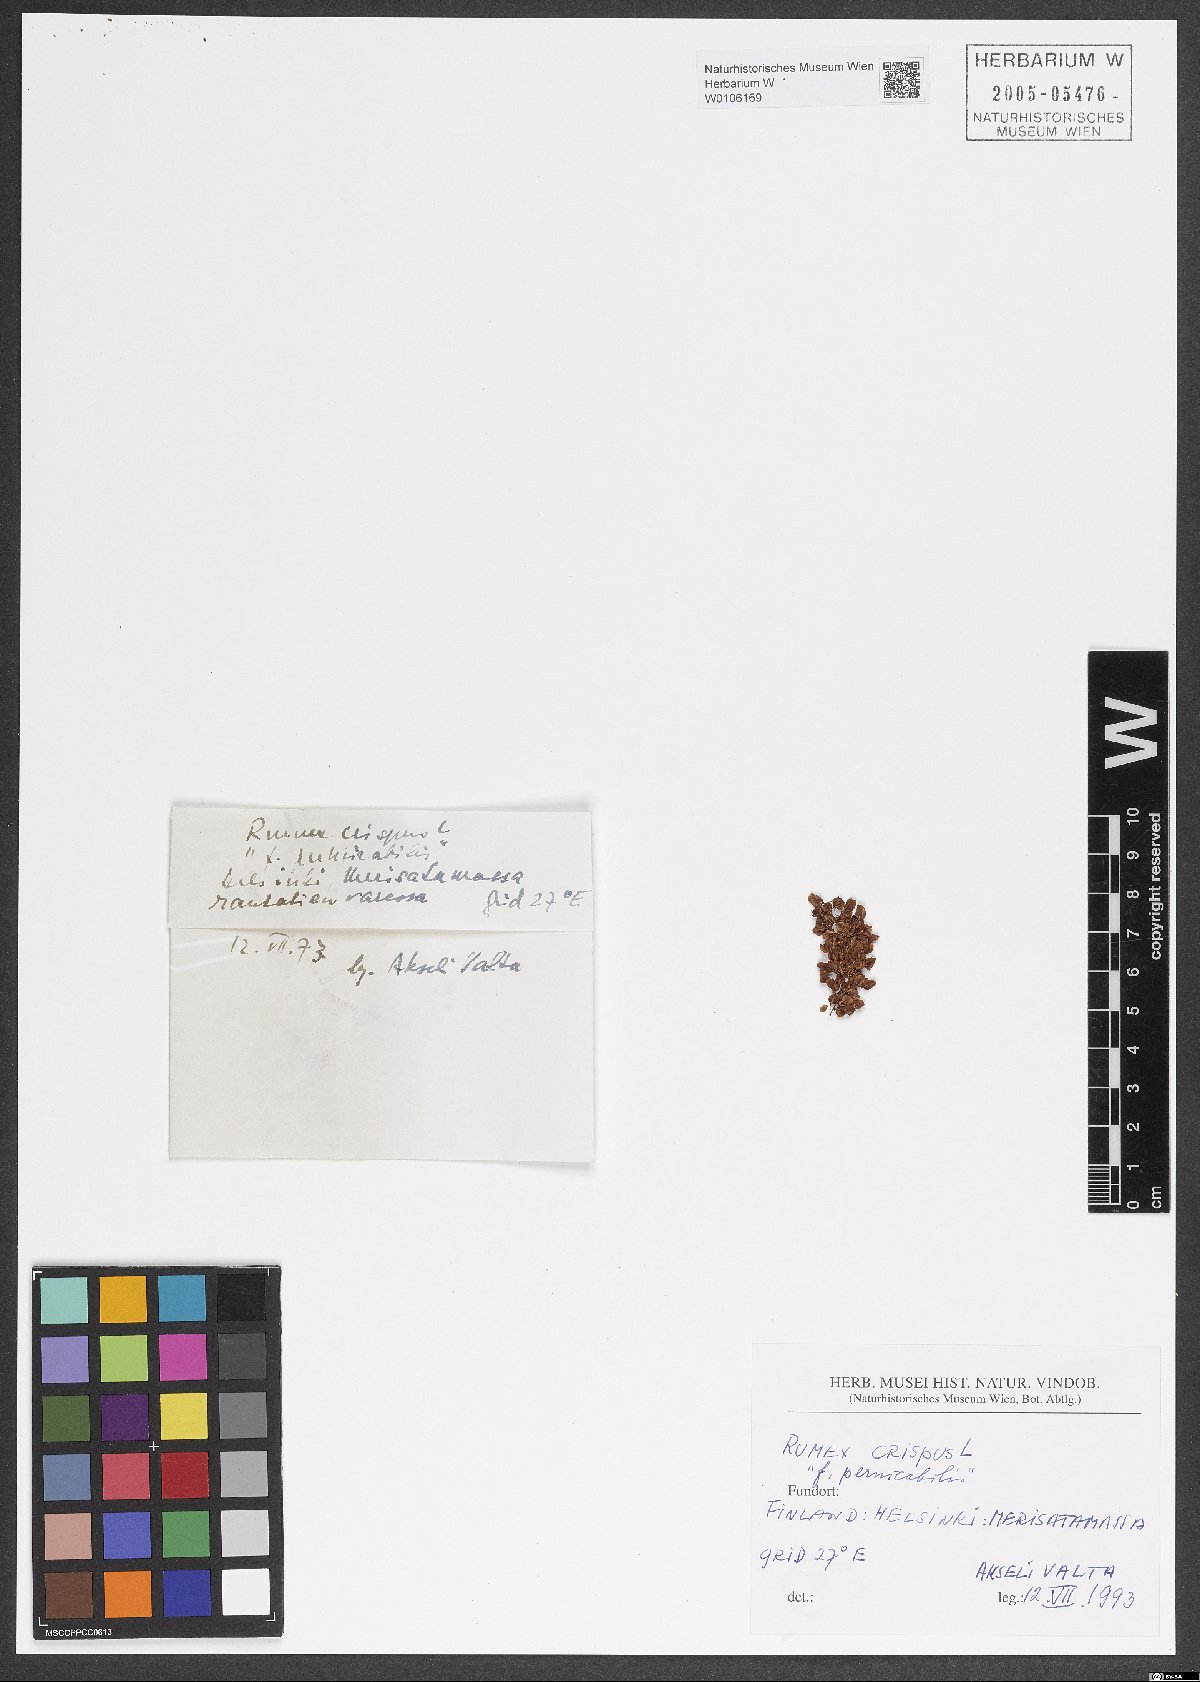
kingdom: Plantae
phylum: Tracheophyta
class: Magnoliopsida
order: Caryophyllales
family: Polygonaceae
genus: Rumex
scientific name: Rumex crispus
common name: Curled dock
